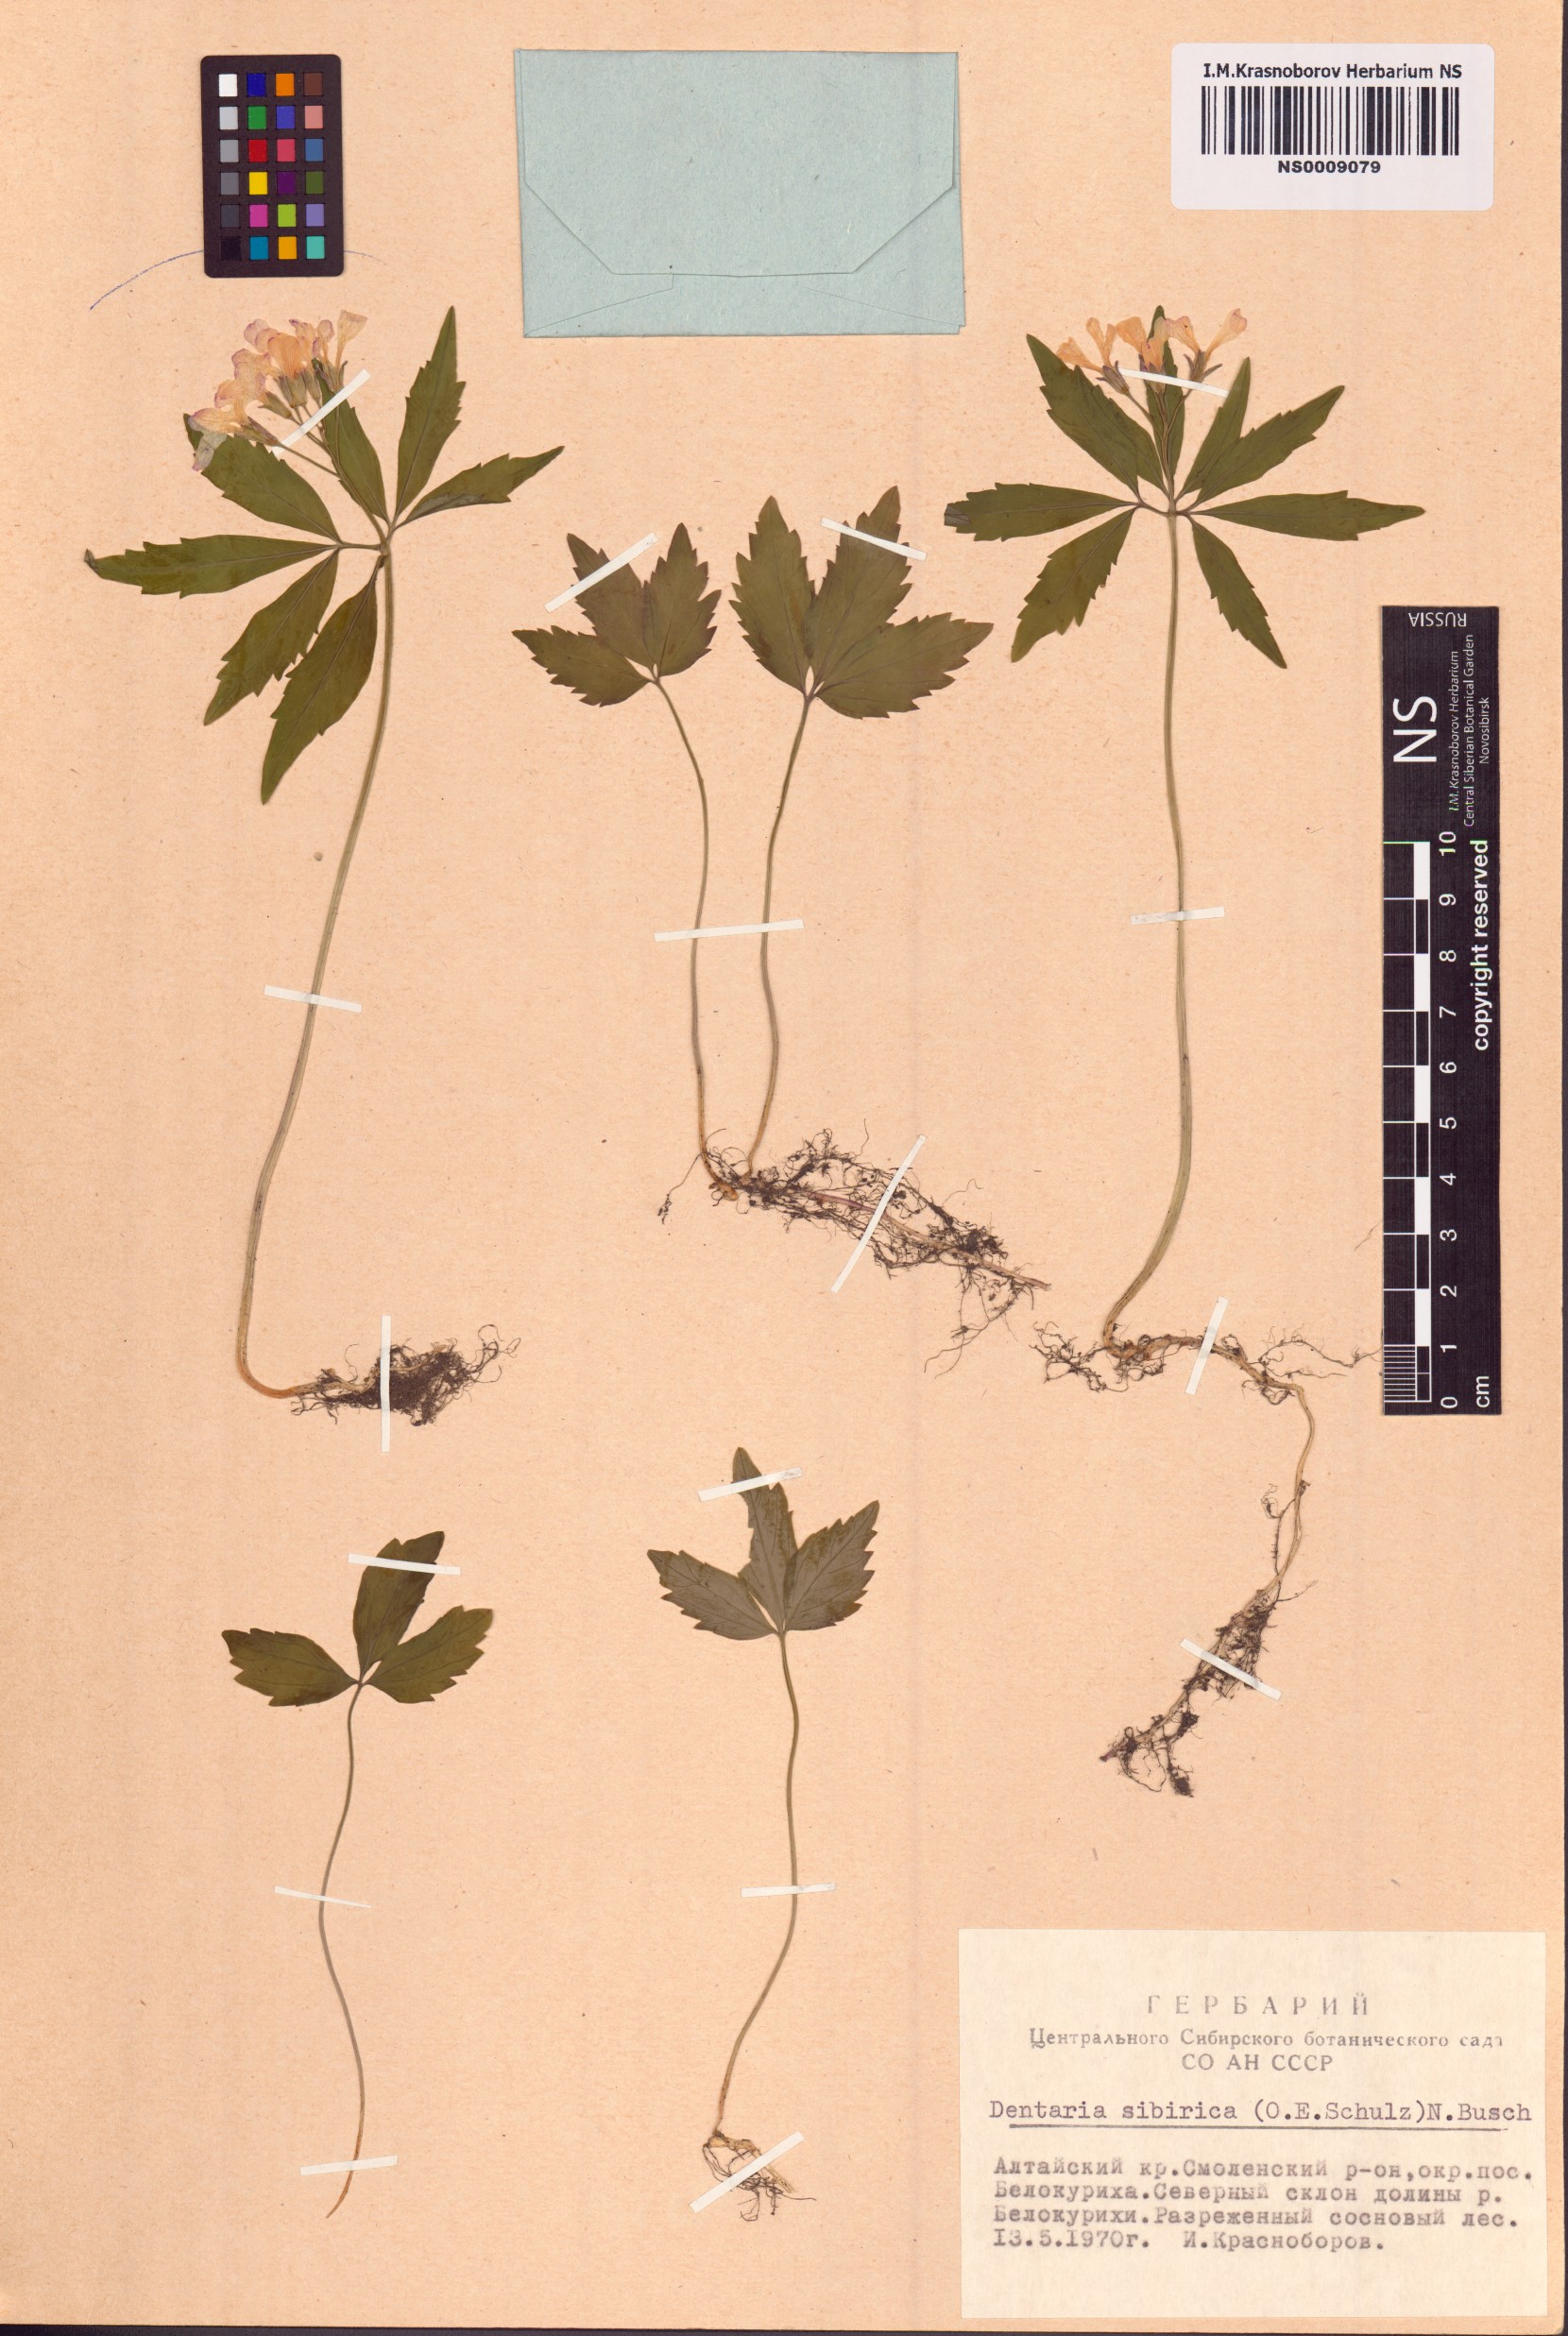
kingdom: Plantae
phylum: Tracheophyta
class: Magnoliopsida
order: Brassicales
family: Brassicaceae
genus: Cardamine
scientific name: Cardamine glanduligera
